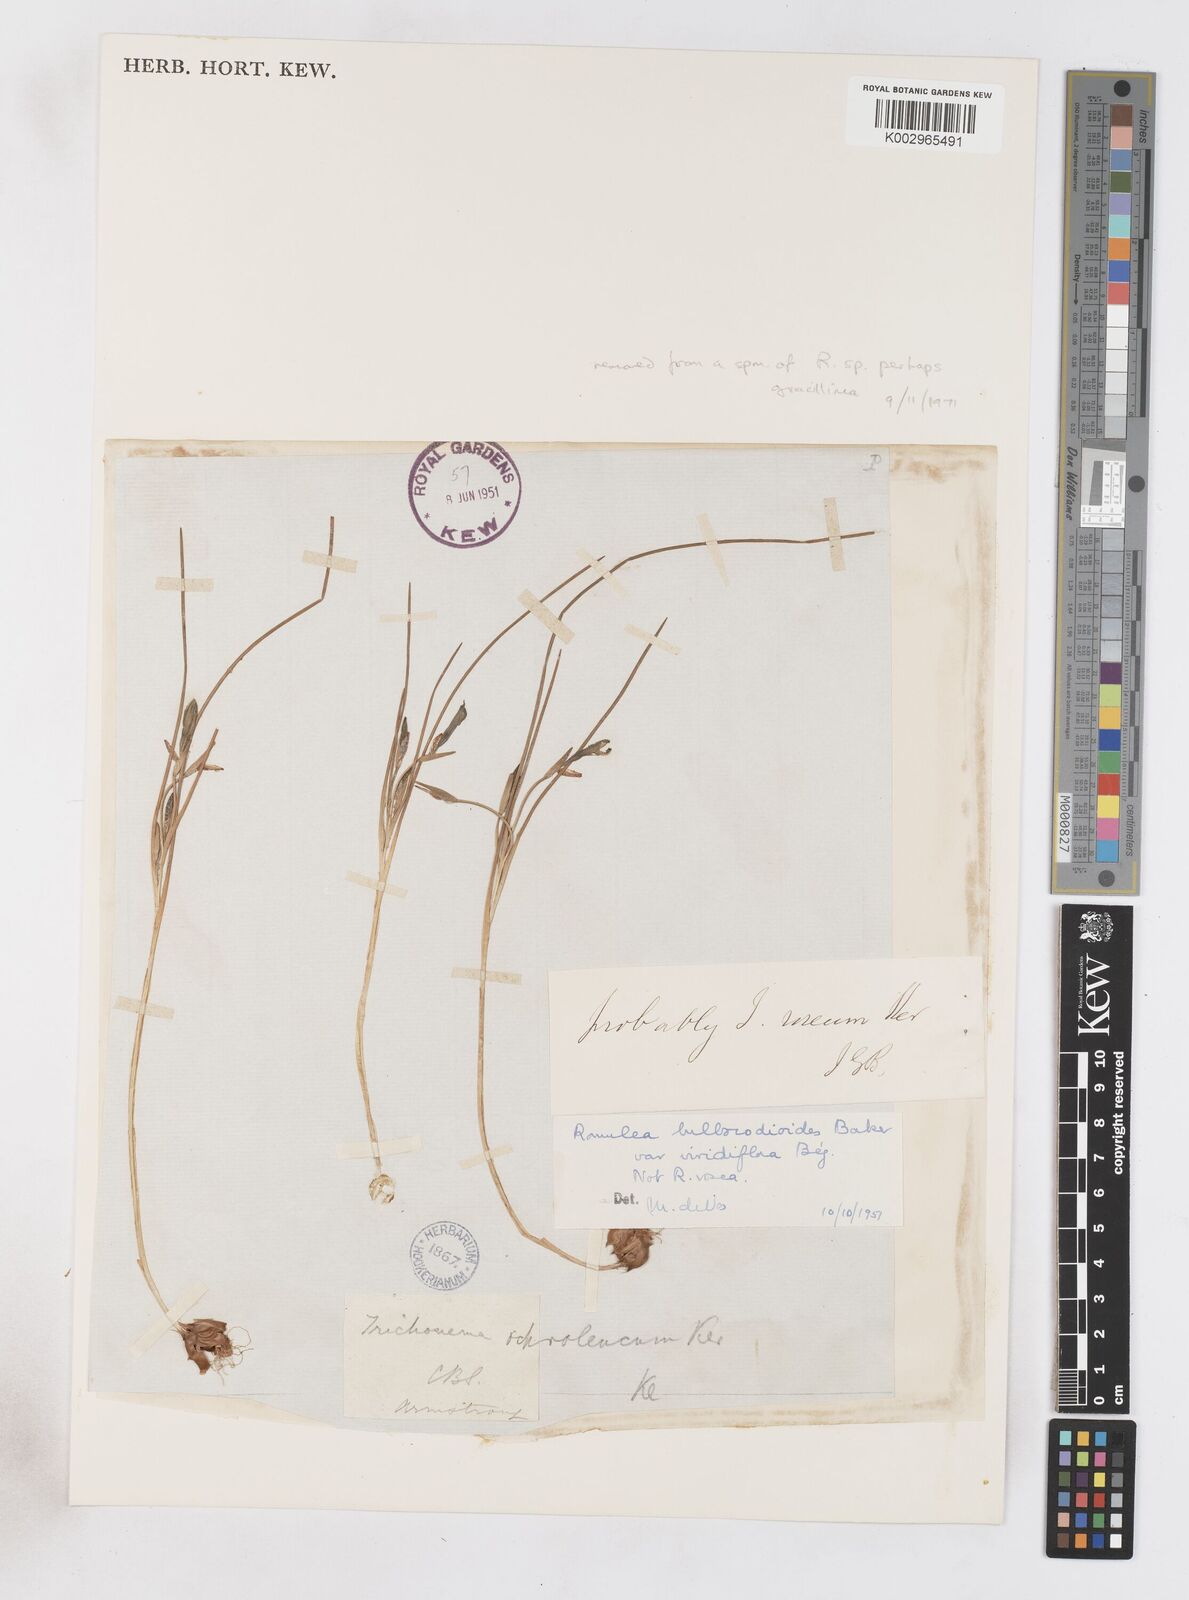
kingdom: Plantae
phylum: Tracheophyta
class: Liliopsida
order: Asparagales
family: Iridaceae
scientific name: Iridaceae
